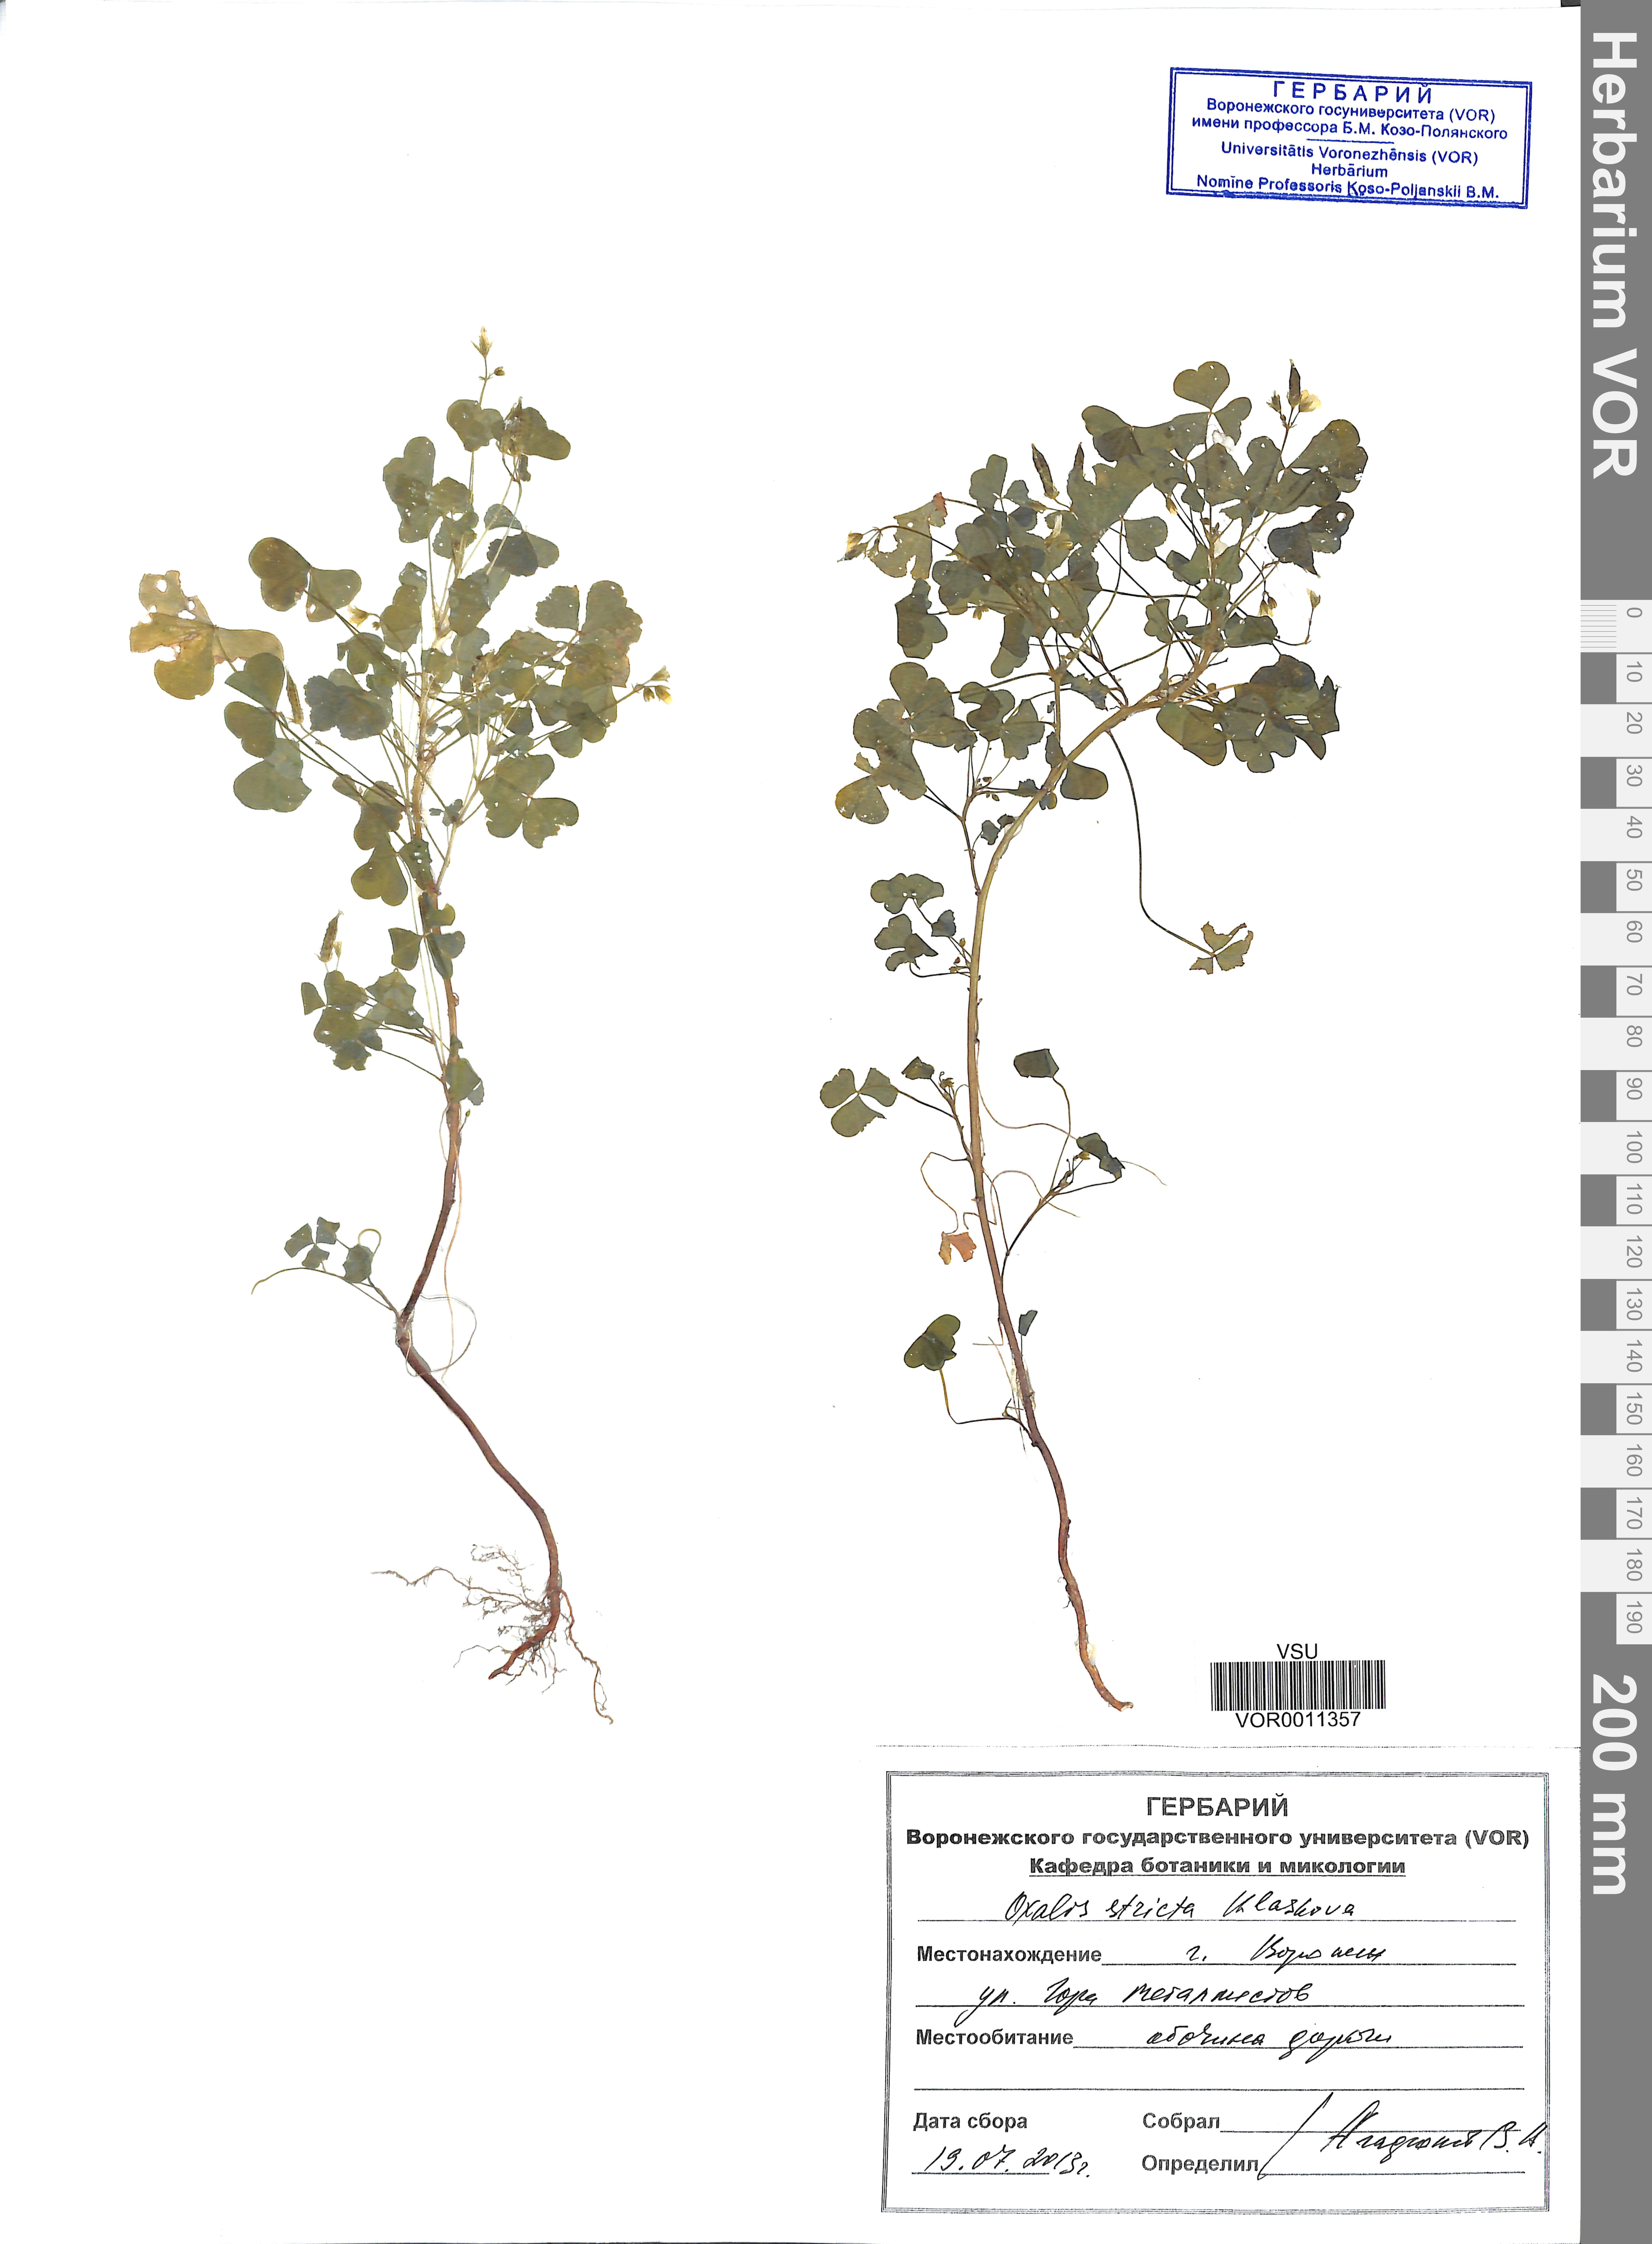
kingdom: Plantae
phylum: Tracheophyta
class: Magnoliopsida
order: Oxalidales
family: Oxalidaceae
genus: Oxalis
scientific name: Oxalis stricta
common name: Upright yellow-sorrel
